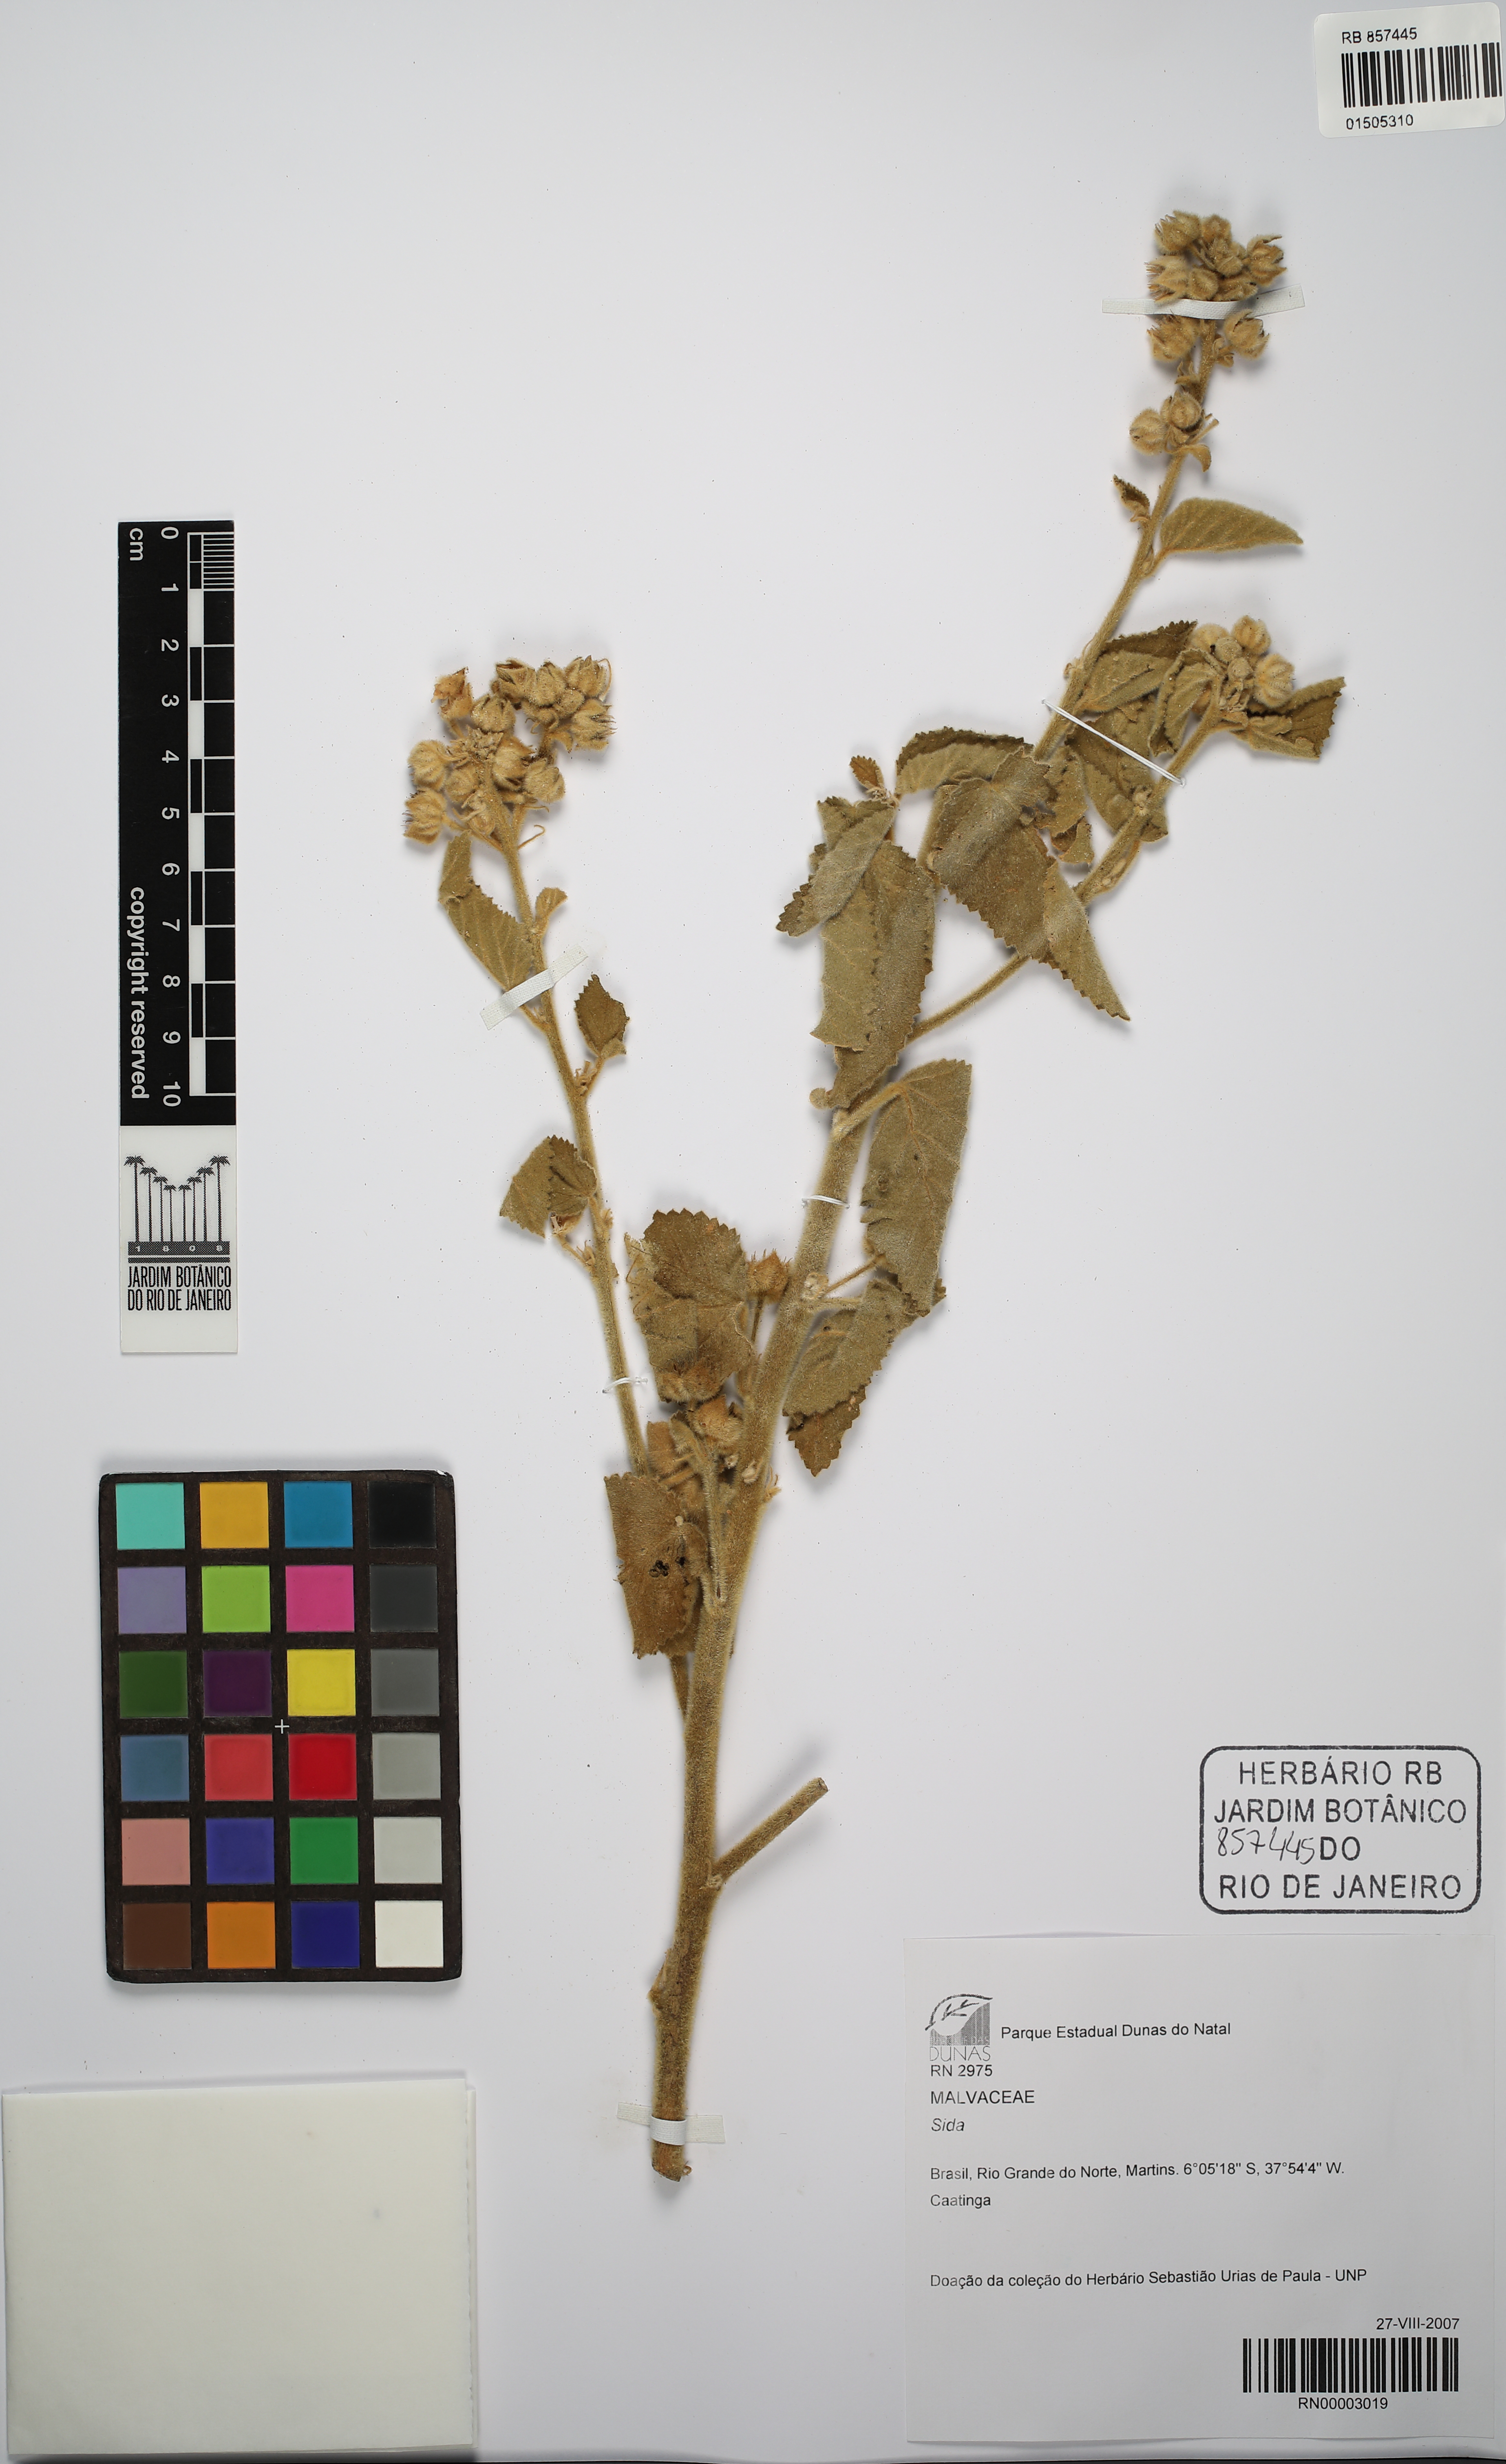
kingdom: Plantae
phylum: Tracheophyta
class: Magnoliopsida
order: Malvales
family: Malvaceae
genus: Sida
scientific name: Sida
